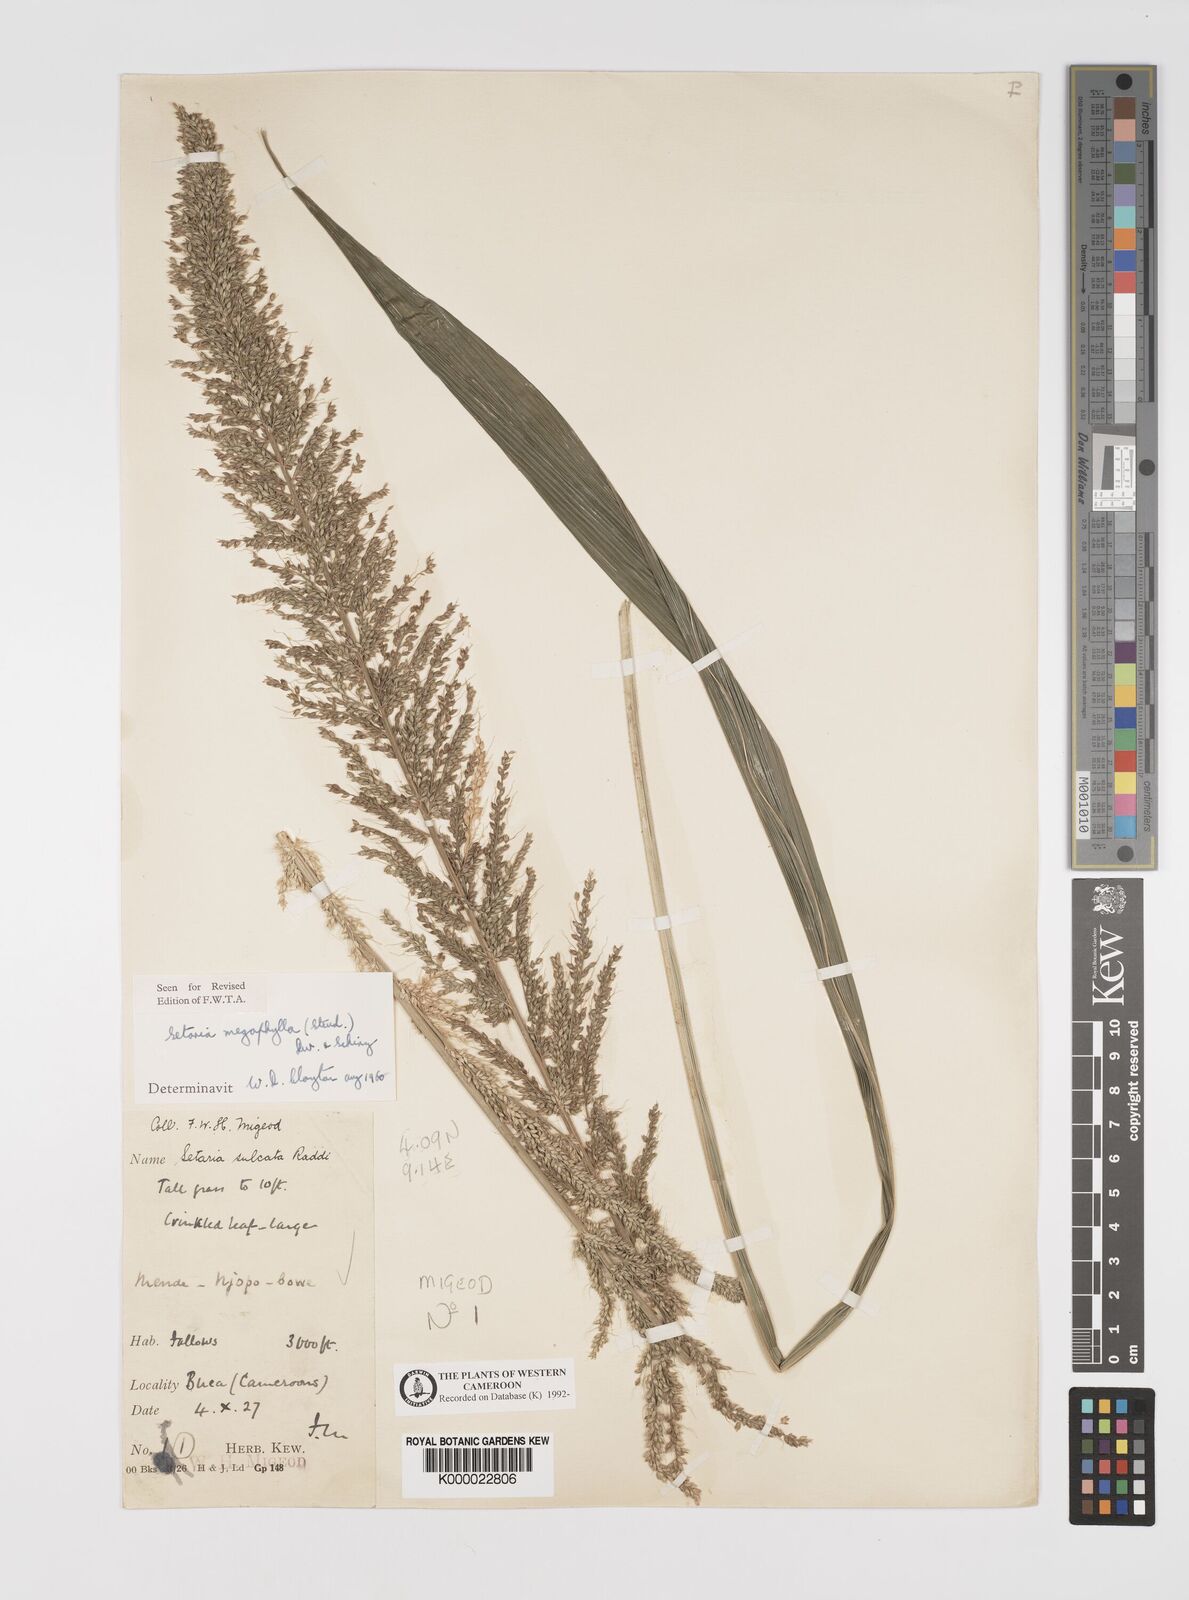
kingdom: Plantae
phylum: Tracheophyta
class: Liliopsida
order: Poales
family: Poaceae
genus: Setaria
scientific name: Setaria megaphylla
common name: Bigleaf bristlegrass
